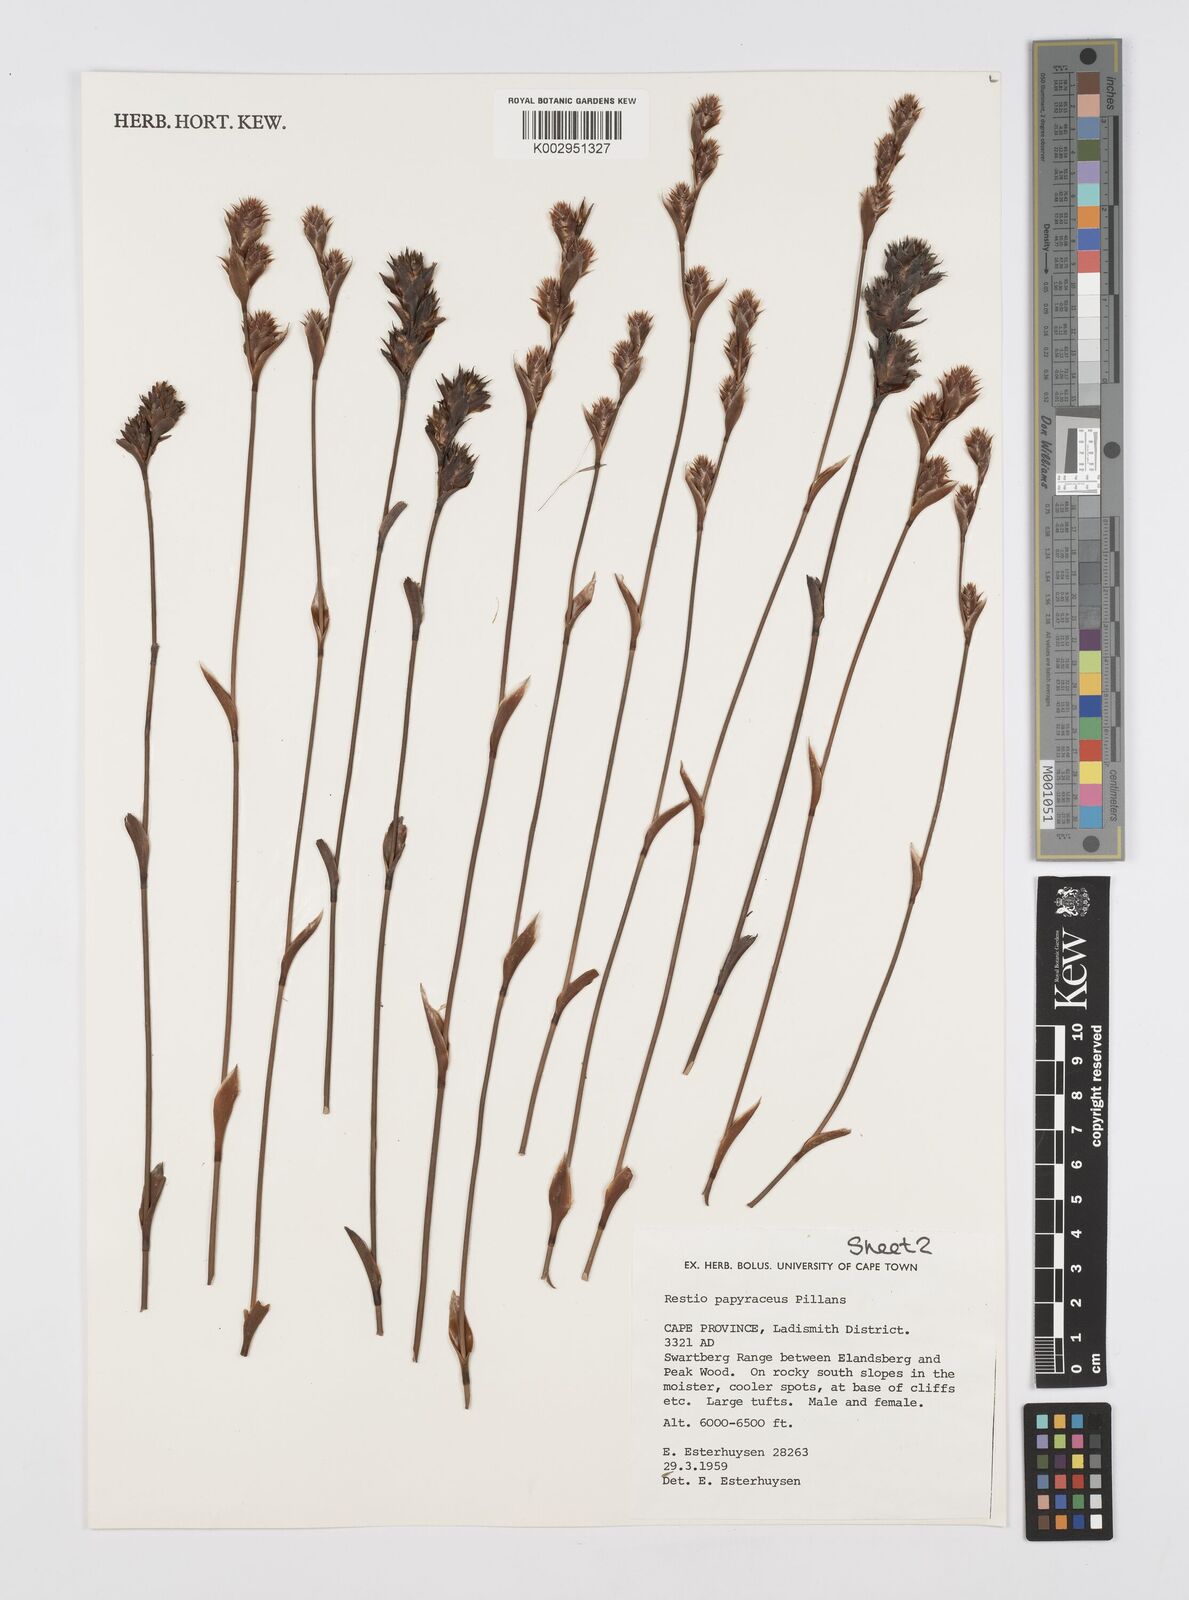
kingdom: Plantae
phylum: Tracheophyta
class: Liliopsida
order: Poales
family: Restionaceae
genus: Restio
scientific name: Restio papyraceus
